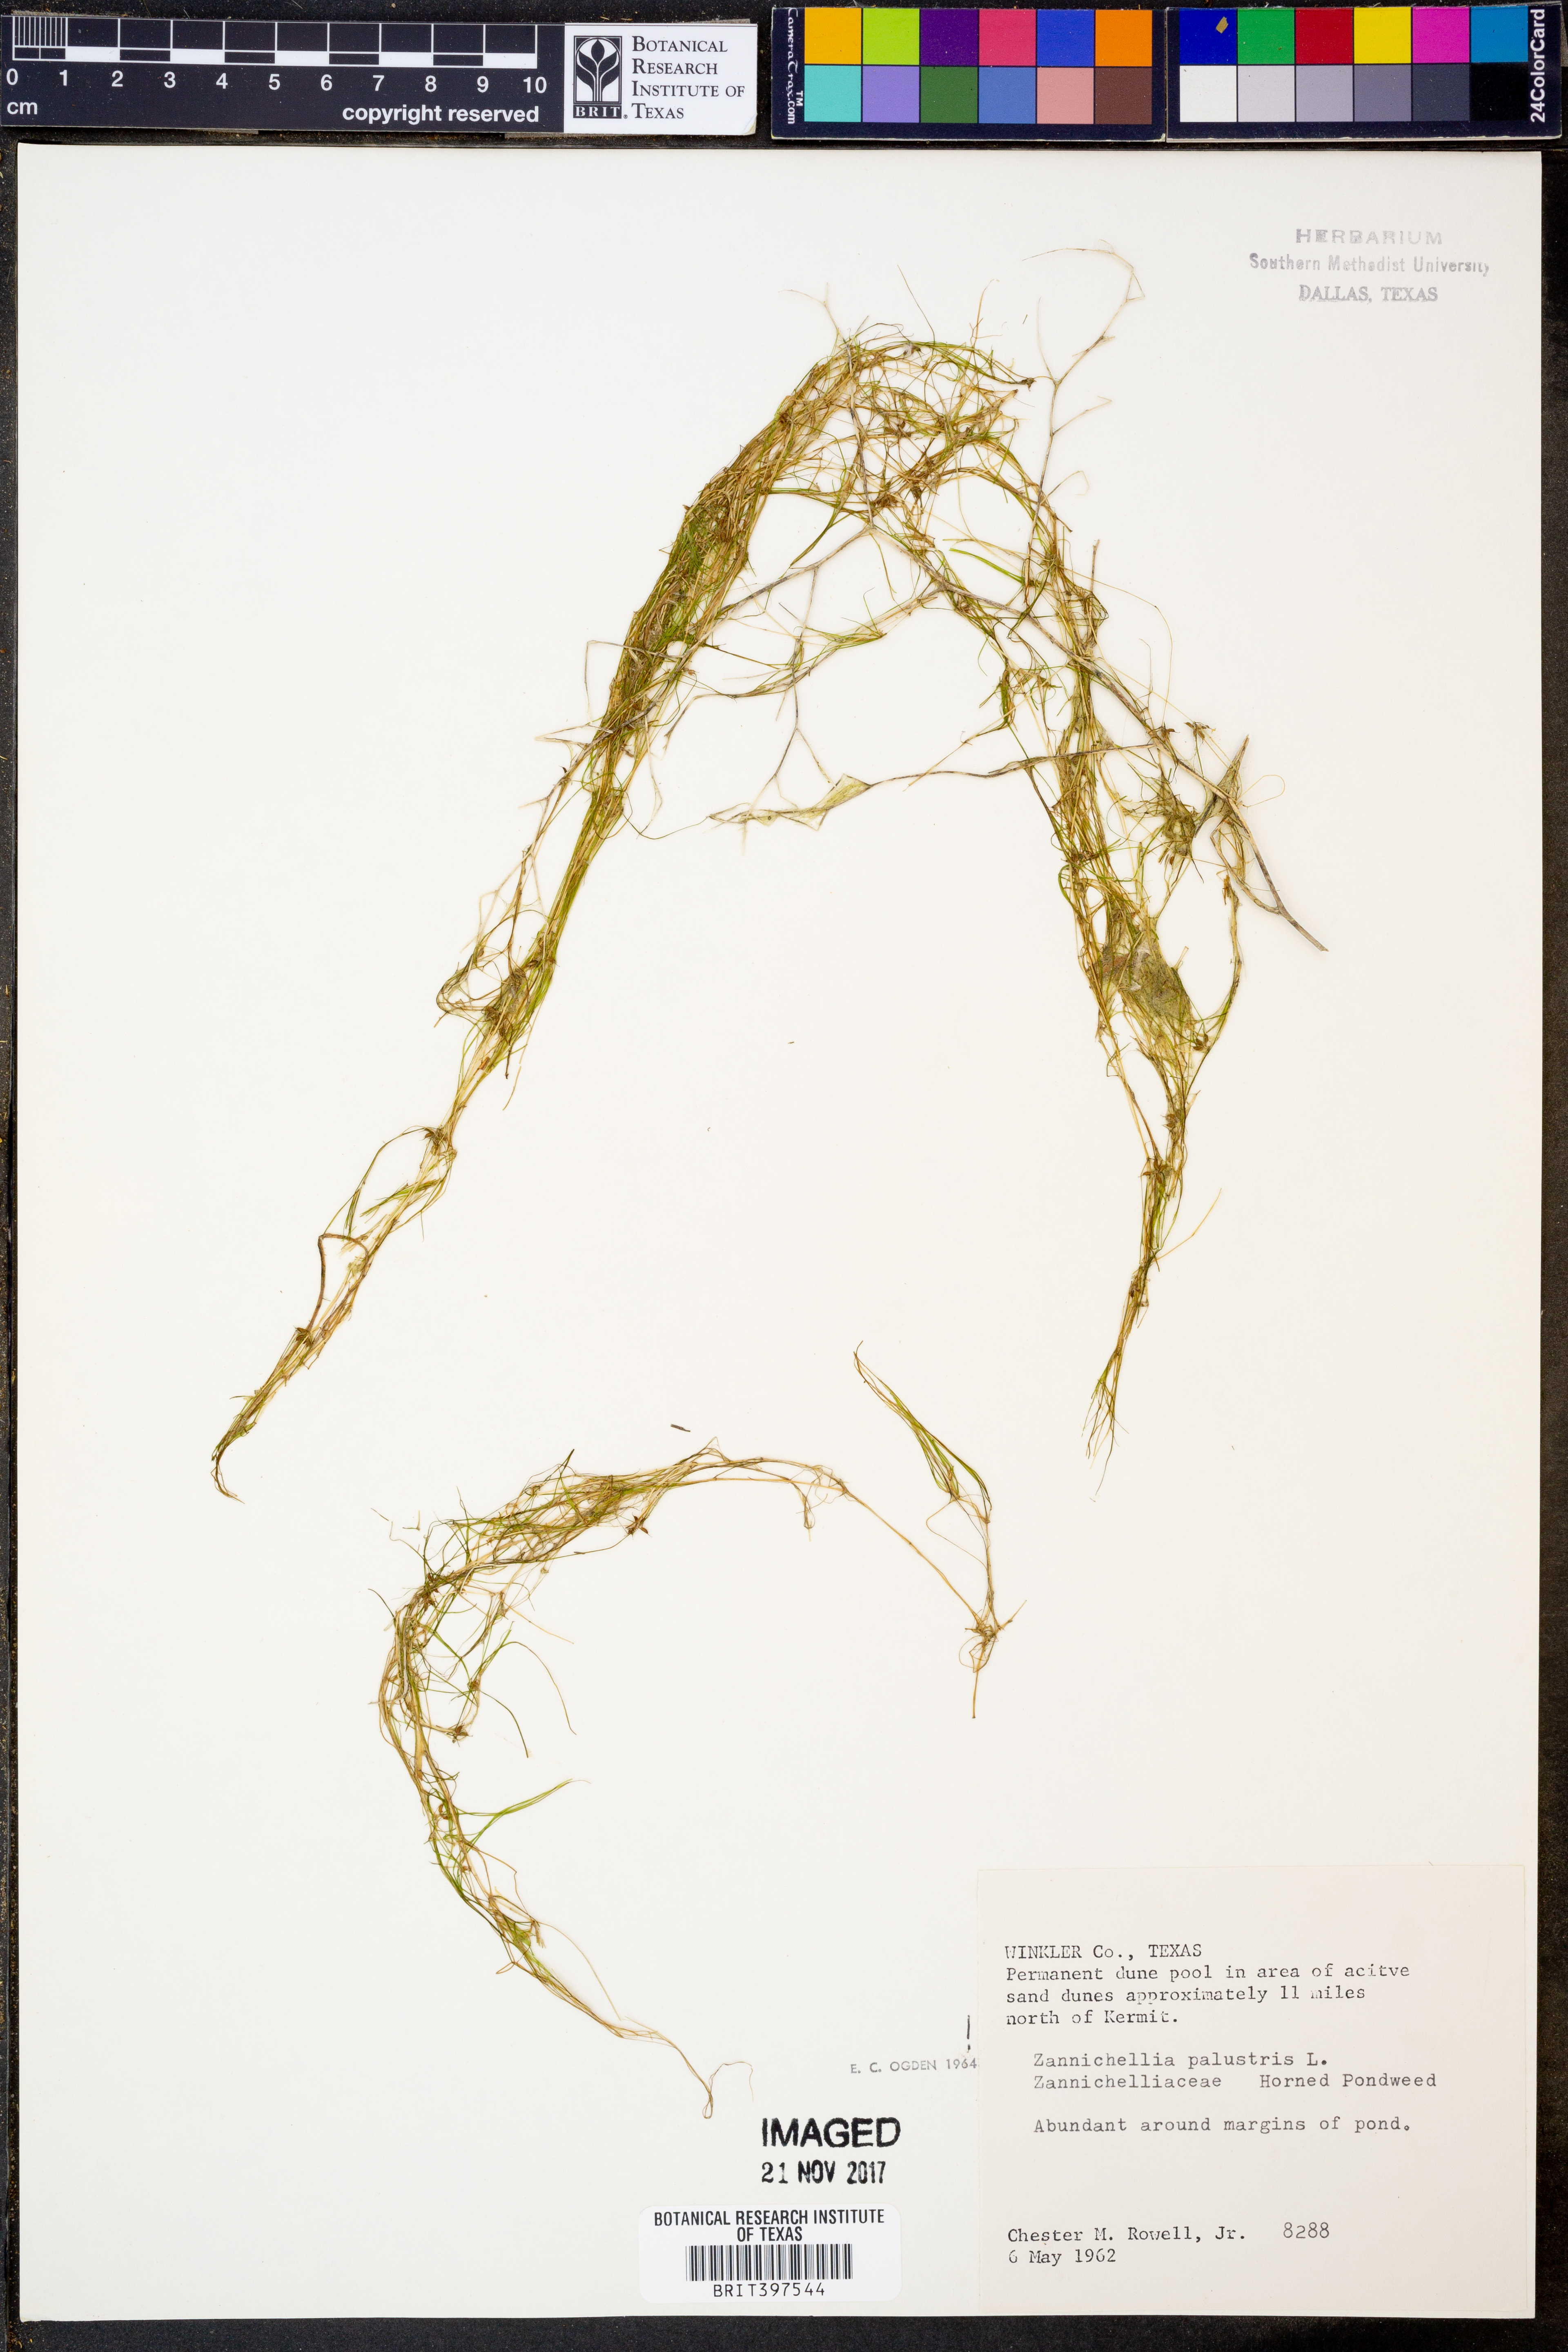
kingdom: Plantae
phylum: Tracheophyta
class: Liliopsida
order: Alismatales
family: Potamogetonaceae
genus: Zannichellia
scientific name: Zannichellia palustris
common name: Horned pondweed
